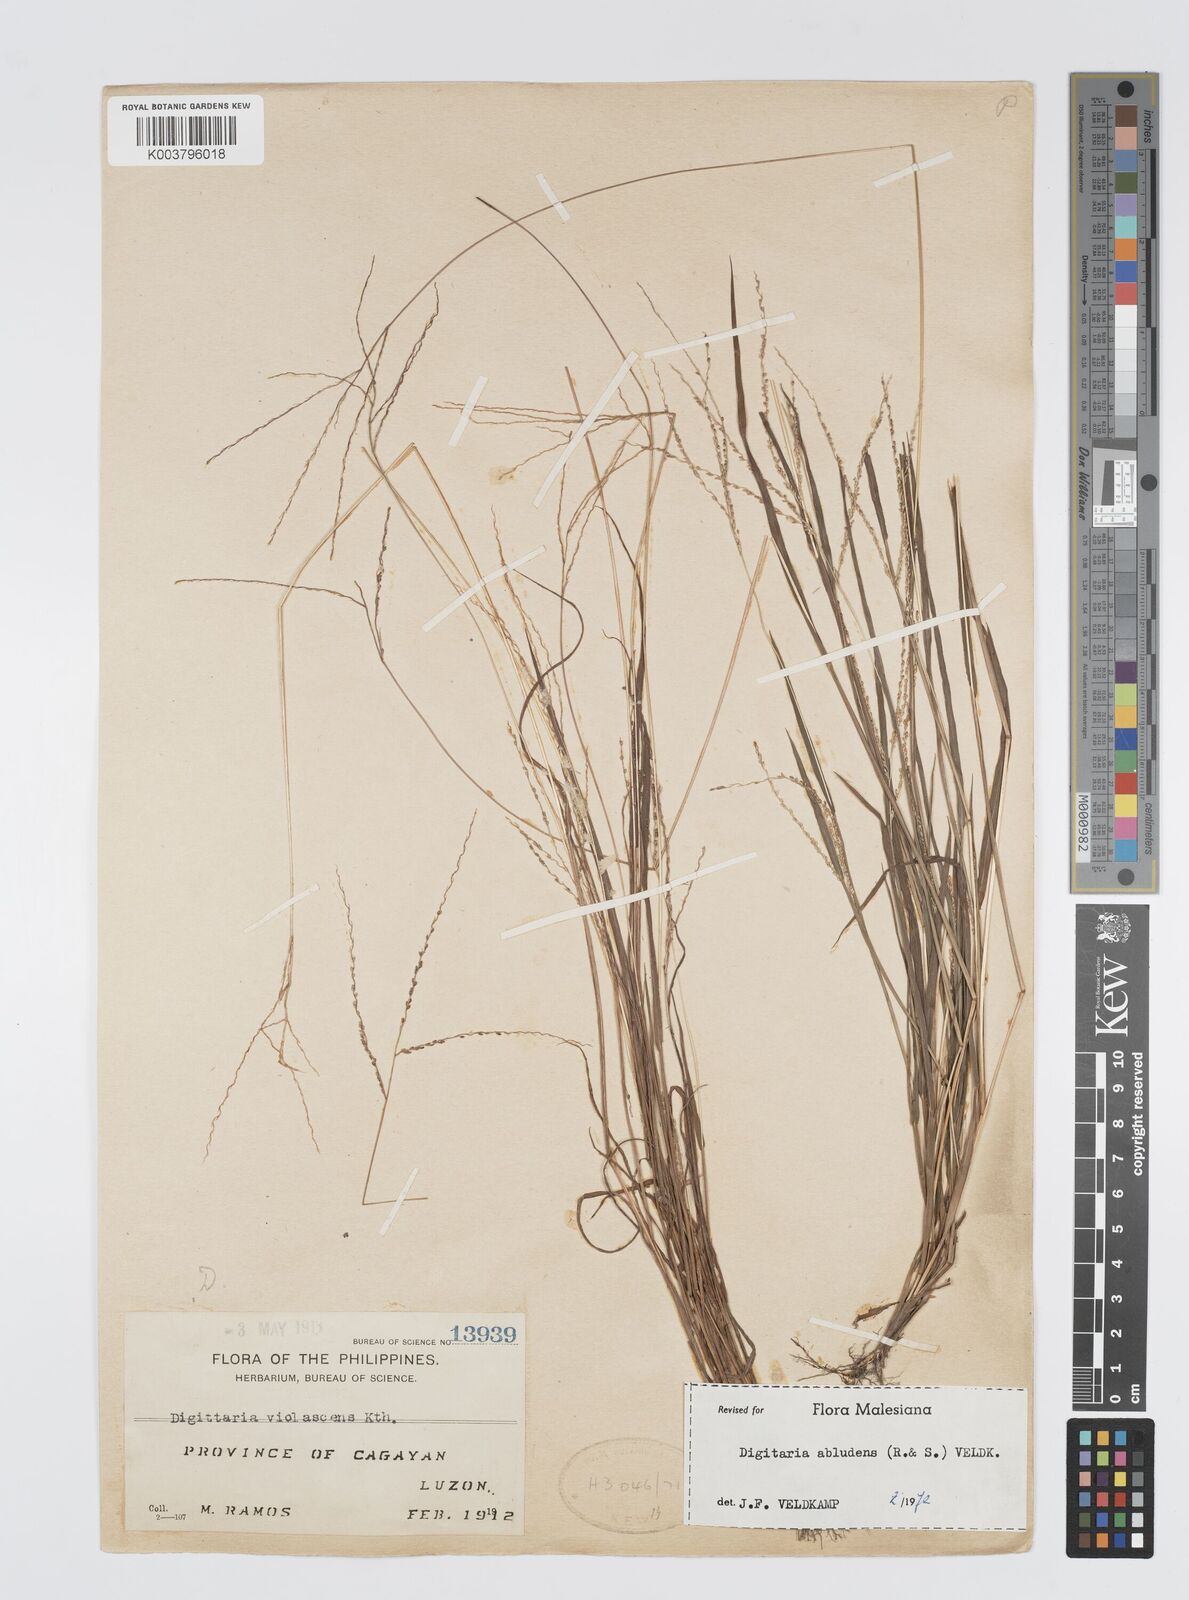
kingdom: Plantae
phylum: Tracheophyta
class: Liliopsida
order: Poales
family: Poaceae
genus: Digitaria
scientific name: Digitaria abludens
